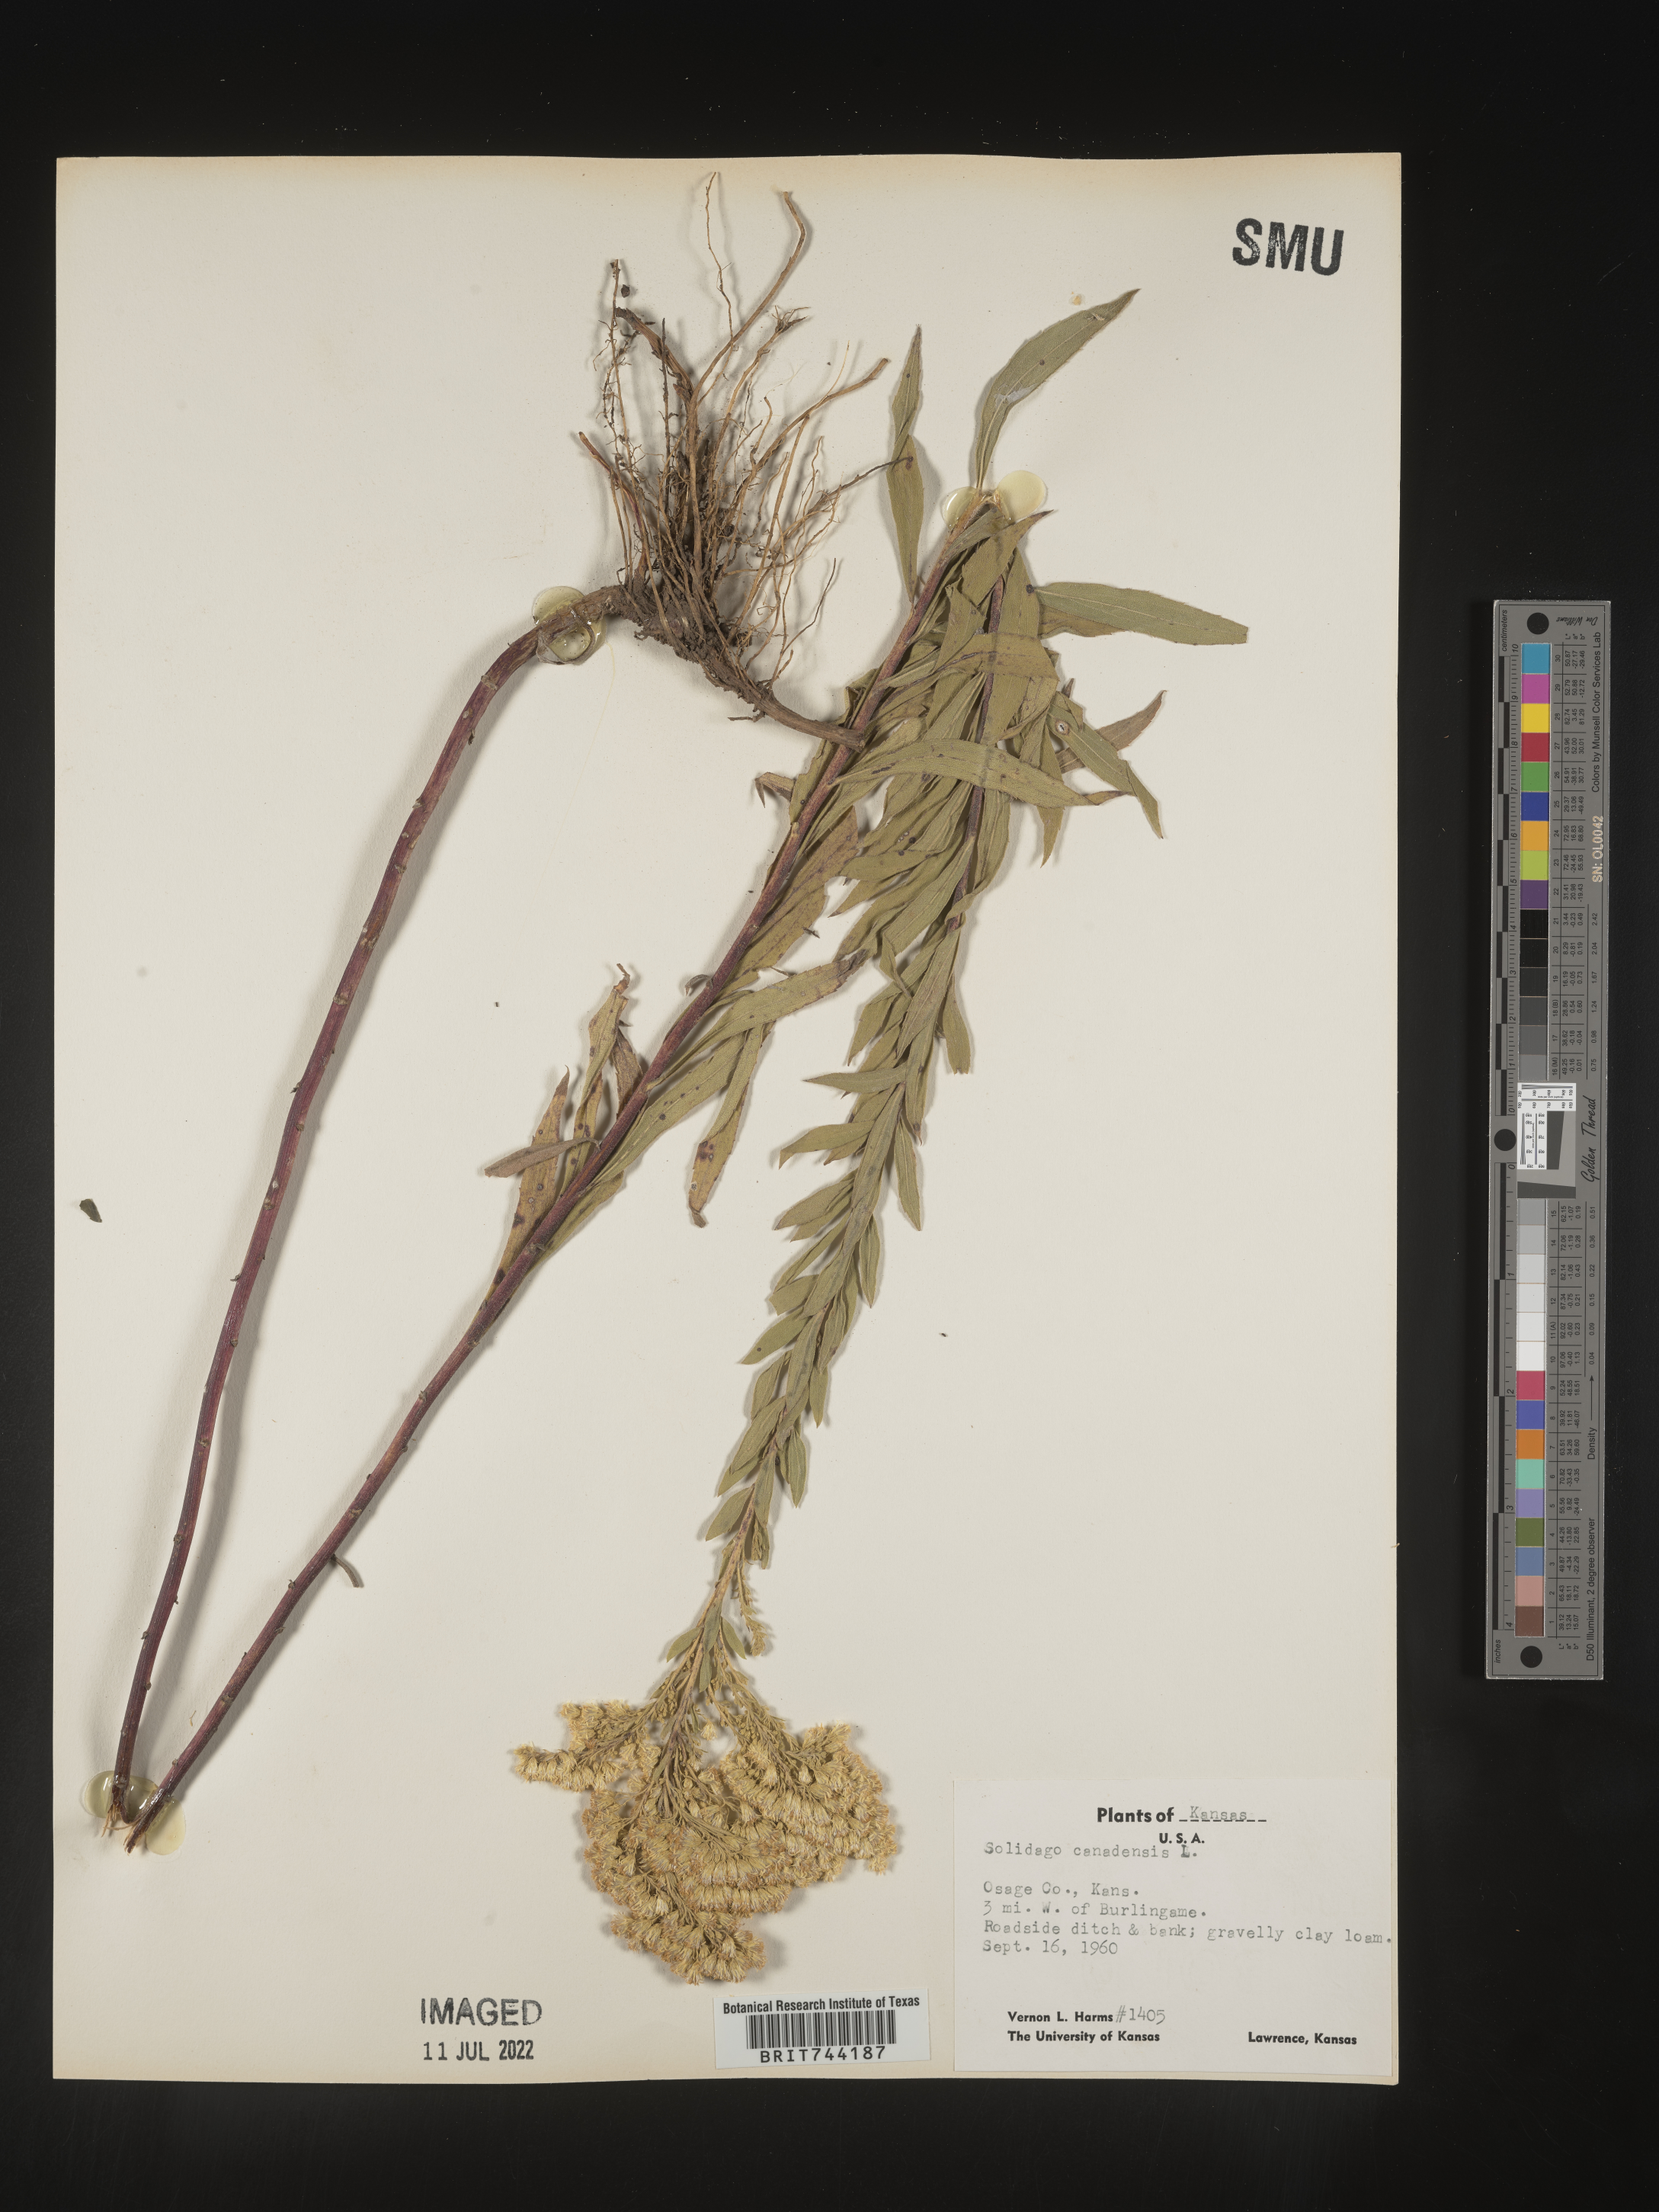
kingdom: Plantae
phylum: Tracheophyta
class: Magnoliopsida
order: Asterales
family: Asteraceae
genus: Solidago
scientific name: Solidago altissima
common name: Late goldenrod
